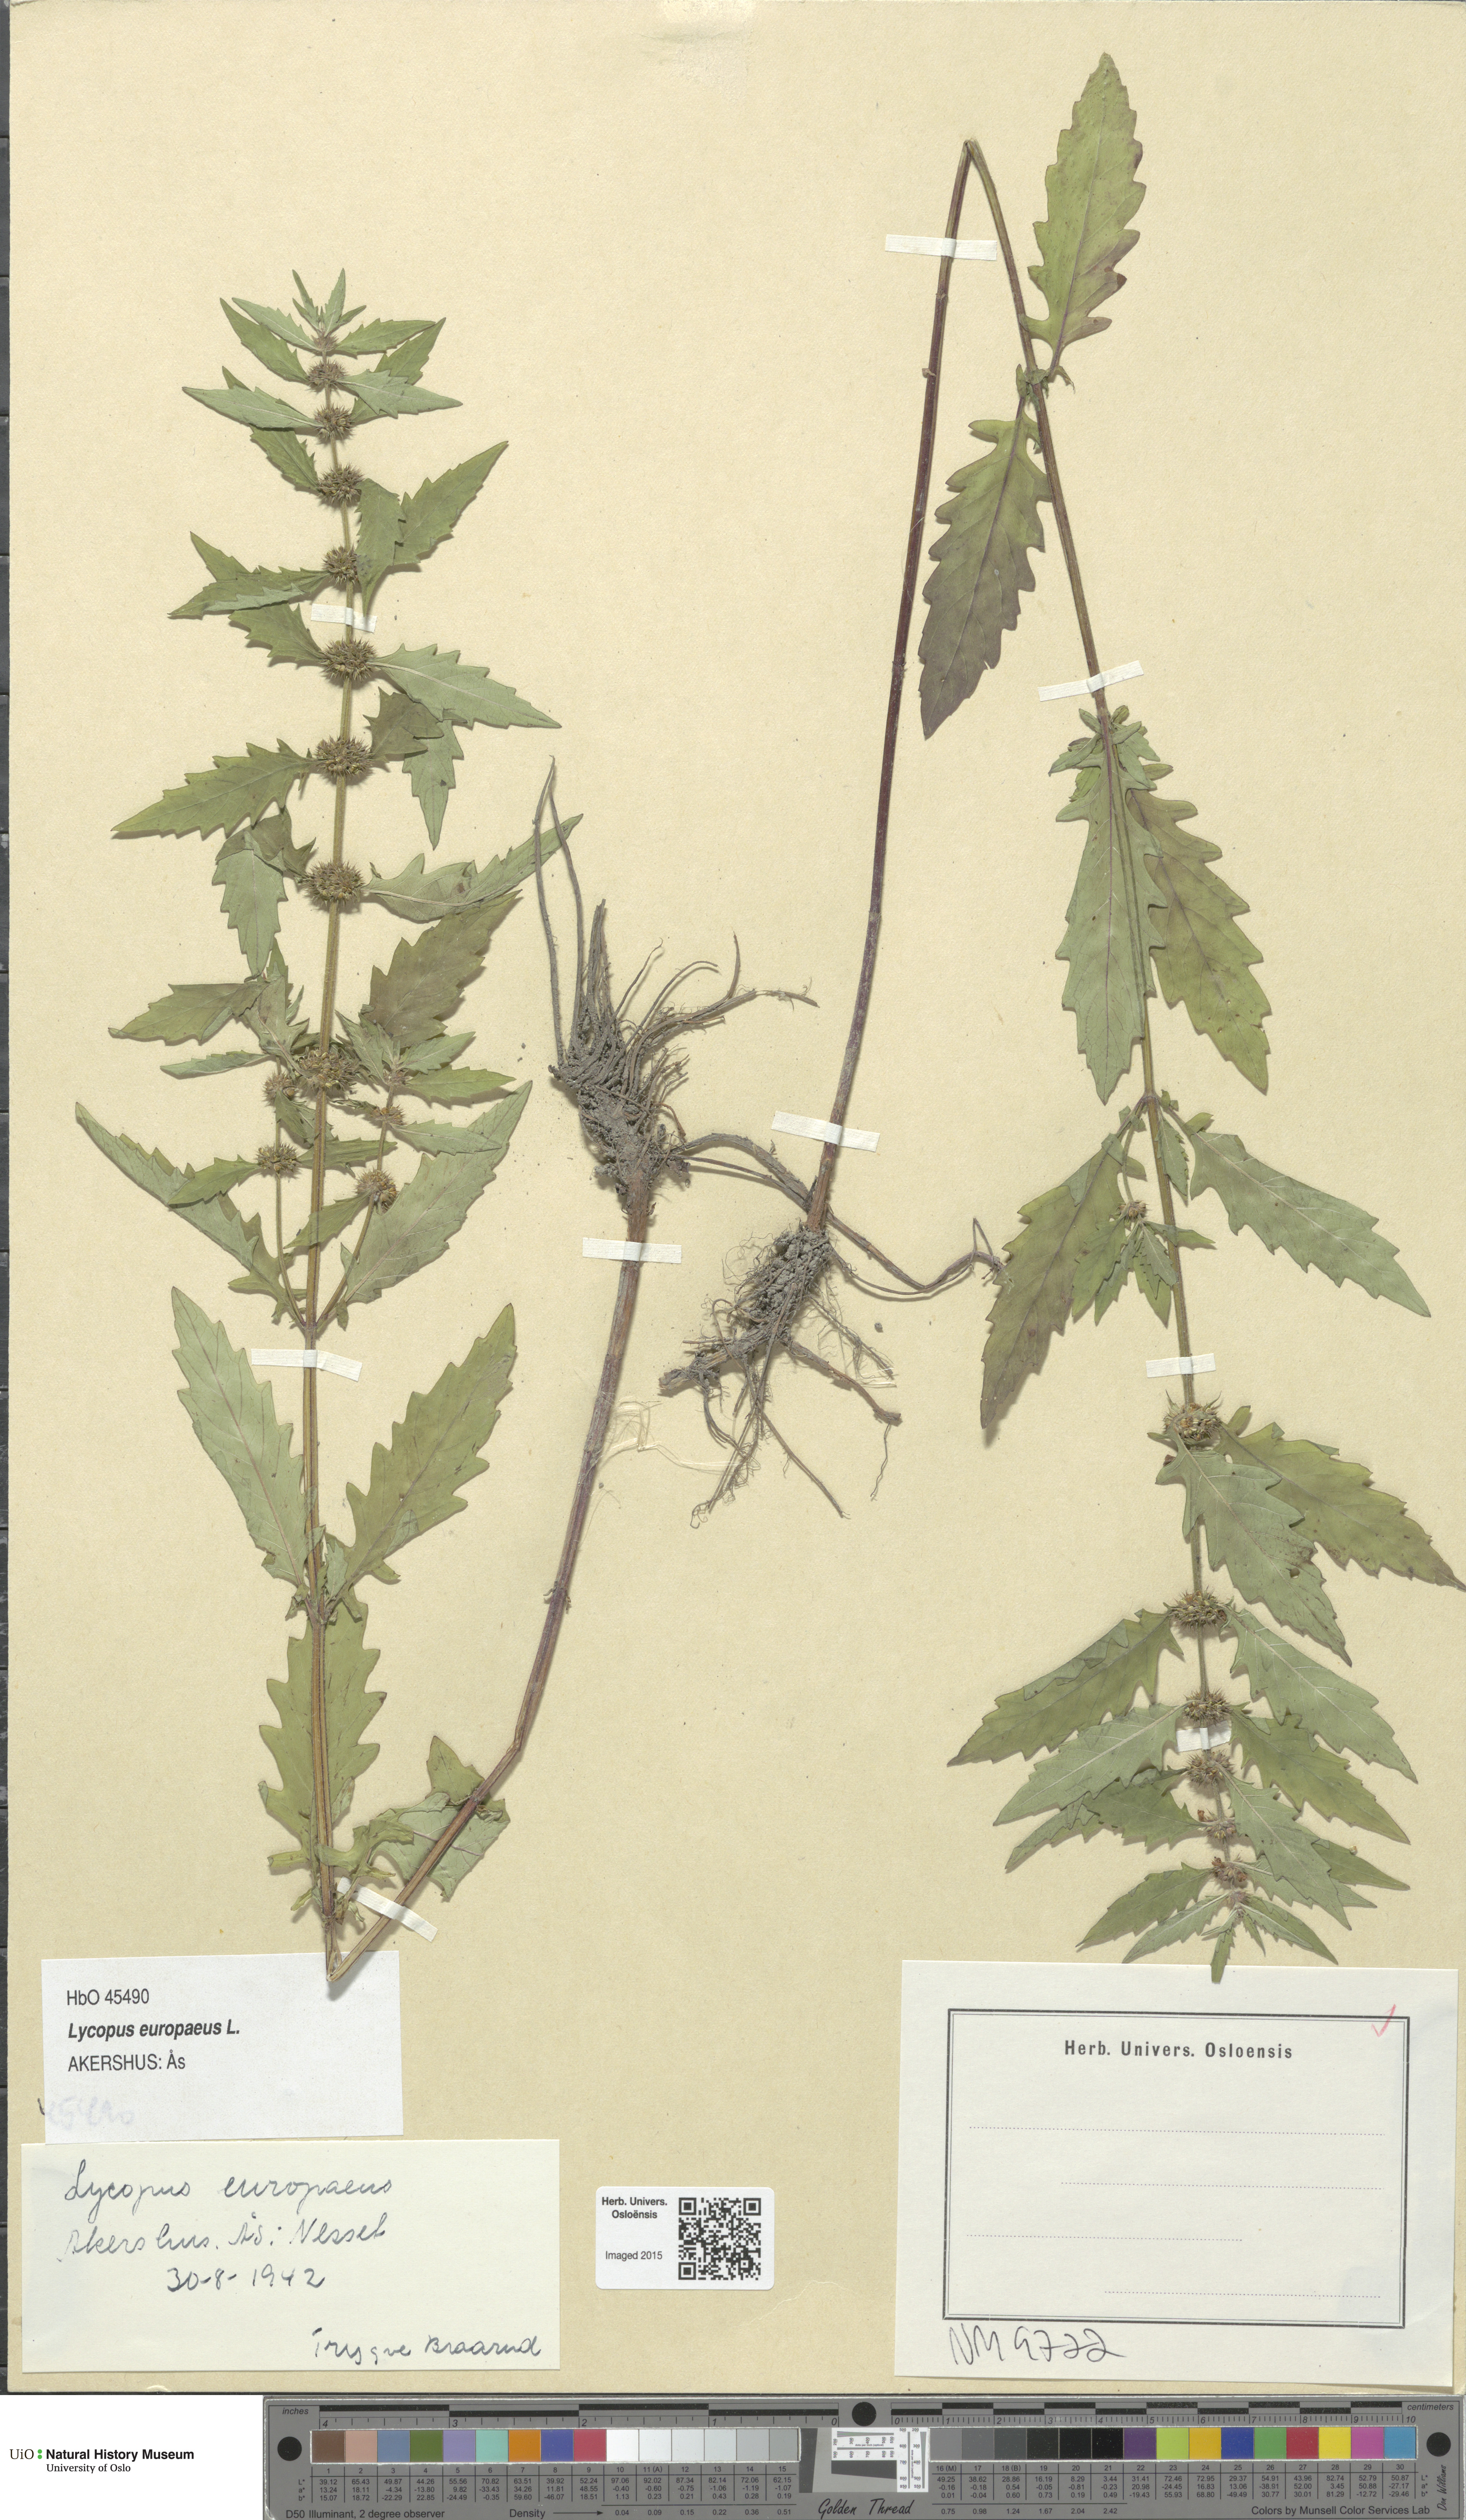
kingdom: Plantae
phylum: Tracheophyta
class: Magnoliopsida
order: Lamiales
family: Lamiaceae
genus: Lycopus
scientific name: Lycopus europaeus
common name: European bugleweed
